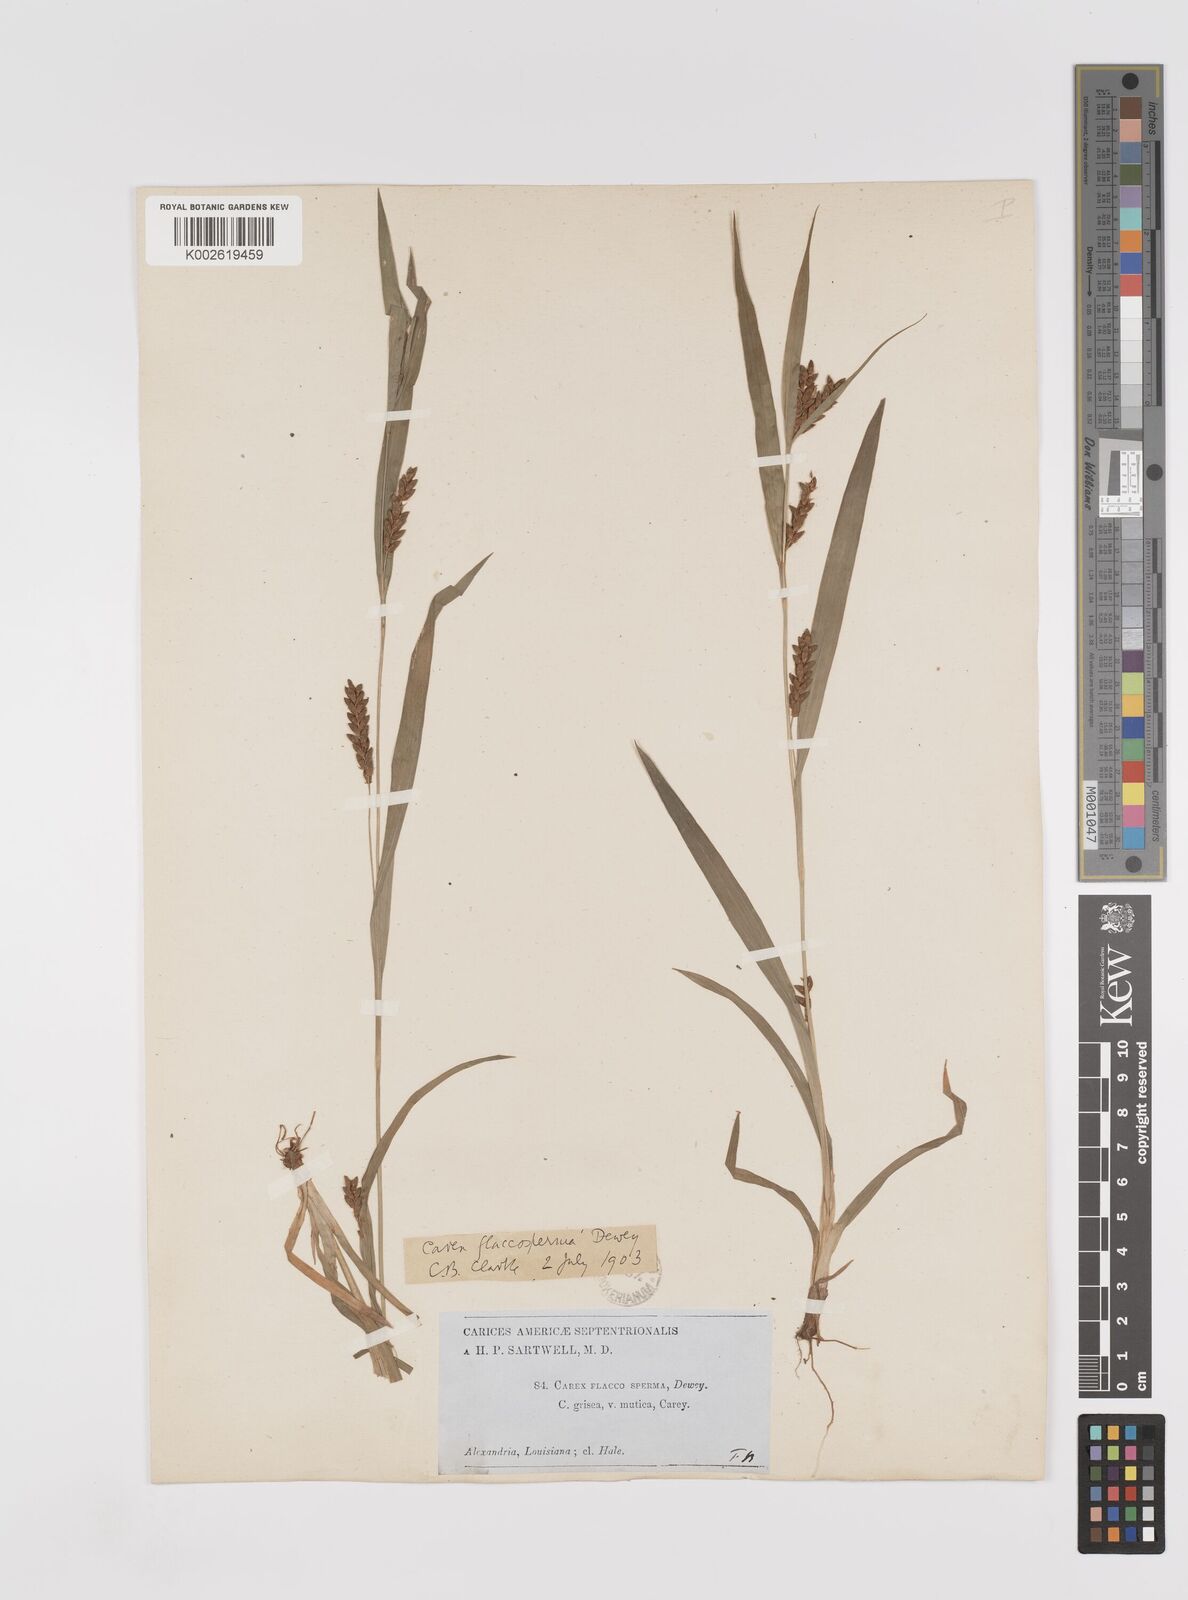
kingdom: Plantae
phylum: Tracheophyta
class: Liliopsida
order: Poales
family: Cyperaceae
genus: Carex
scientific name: Carex flaccosperma
